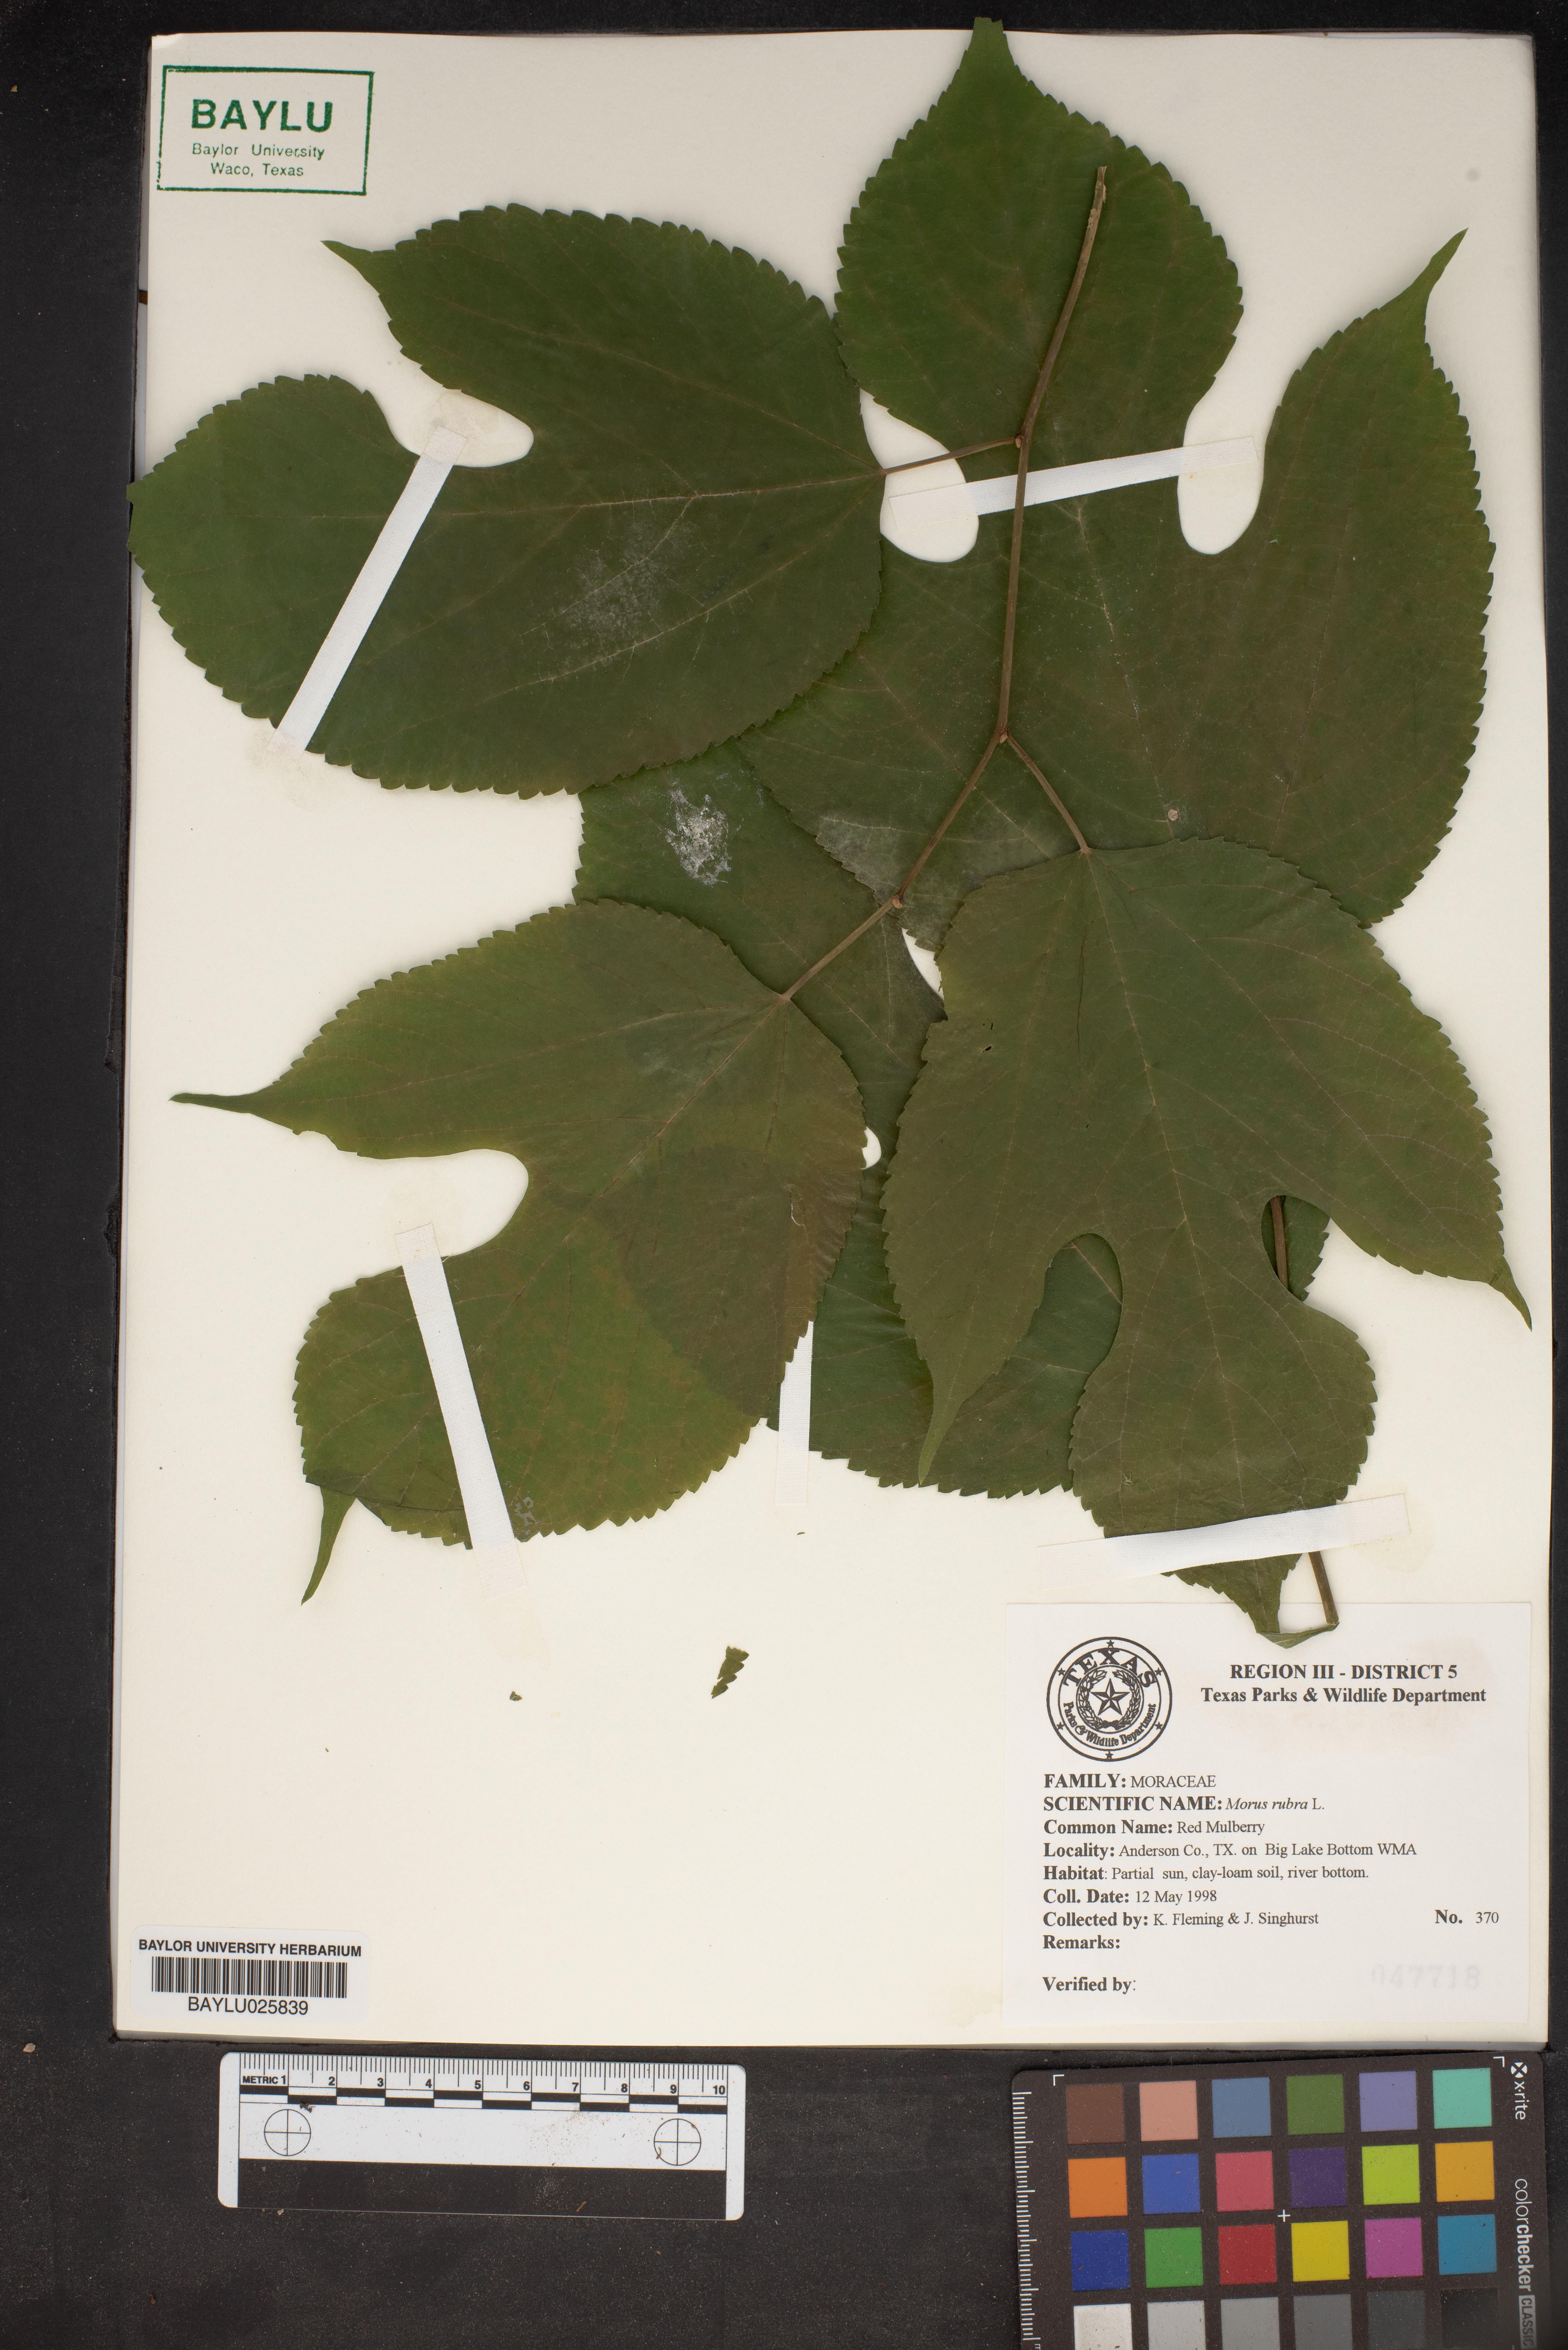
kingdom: Plantae
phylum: Tracheophyta
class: Magnoliopsida
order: Rosales
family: Moraceae
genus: Morus
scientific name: Morus rubra
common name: Red mulberry
